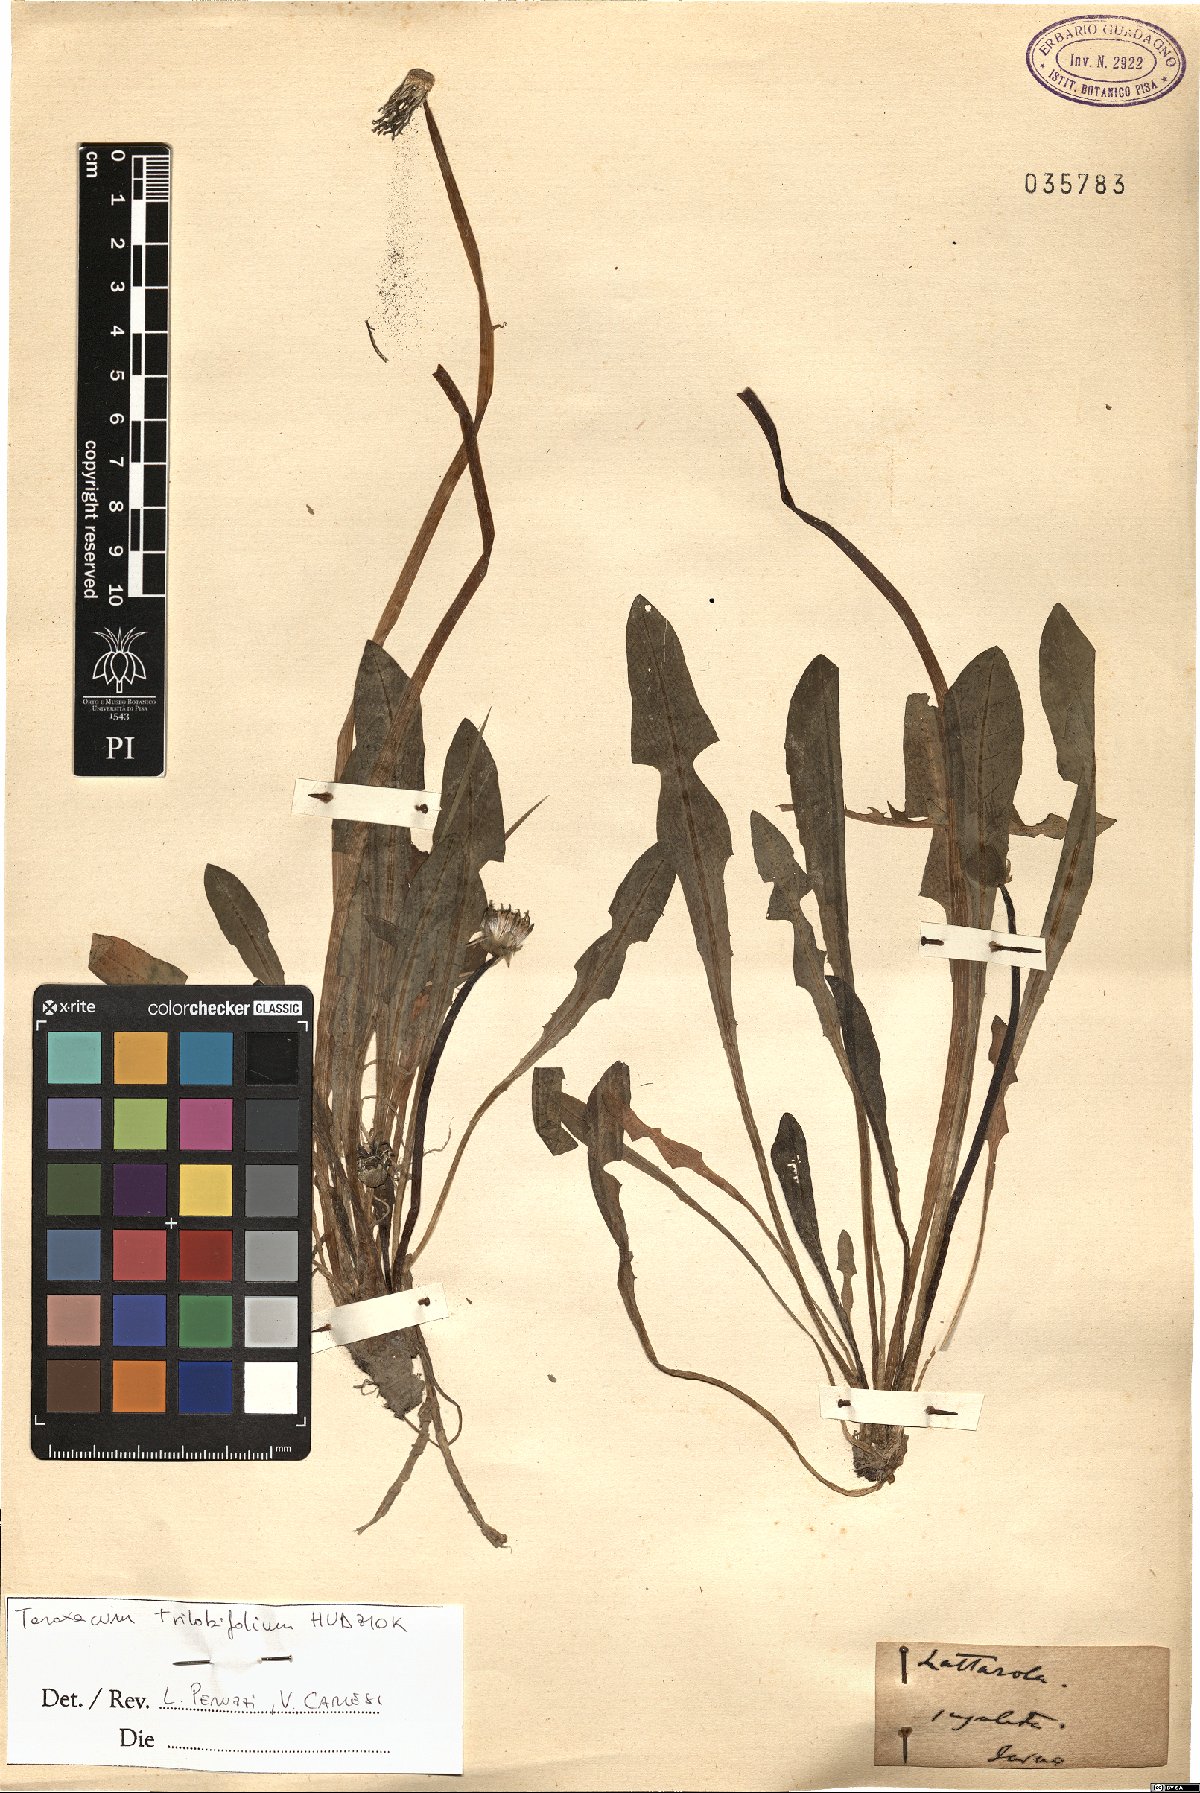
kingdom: Plantae
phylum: Tracheophyta
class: Liliopsida
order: Poales
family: Poaceae
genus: Echinochloa
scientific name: Echinochloa crus-galli
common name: Cockspur
